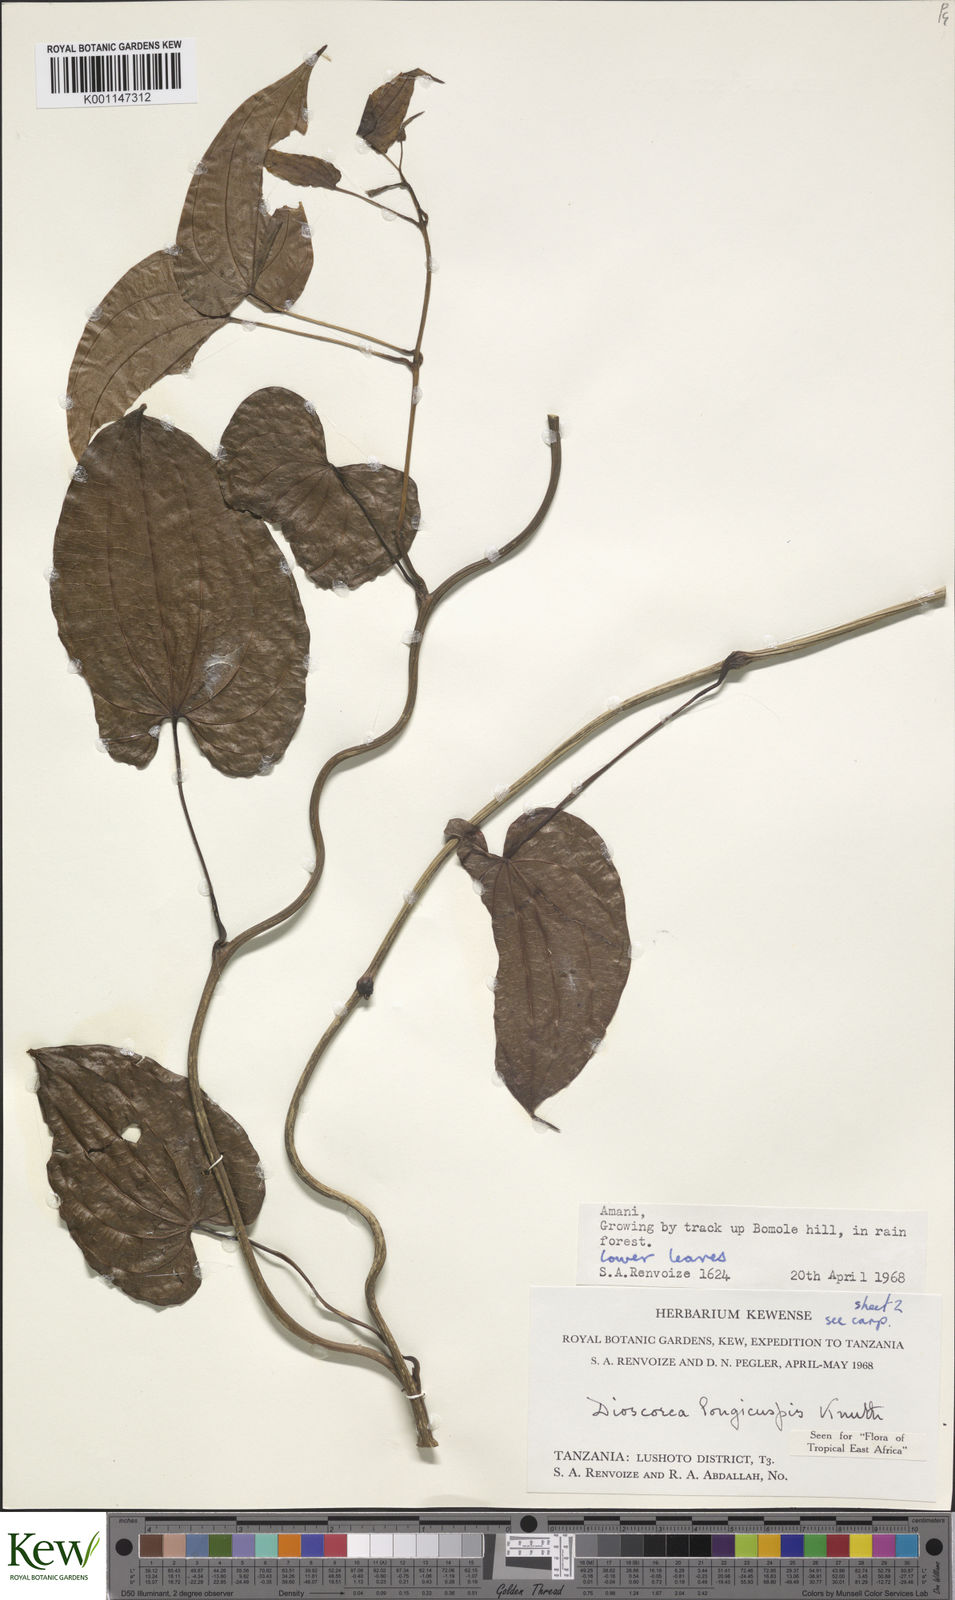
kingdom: Plantae
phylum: Tracheophyta
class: Liliopsida
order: Dioscoreales
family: Dioscoreaceae
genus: Dioscorea
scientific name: Dioscorea longicuspis
